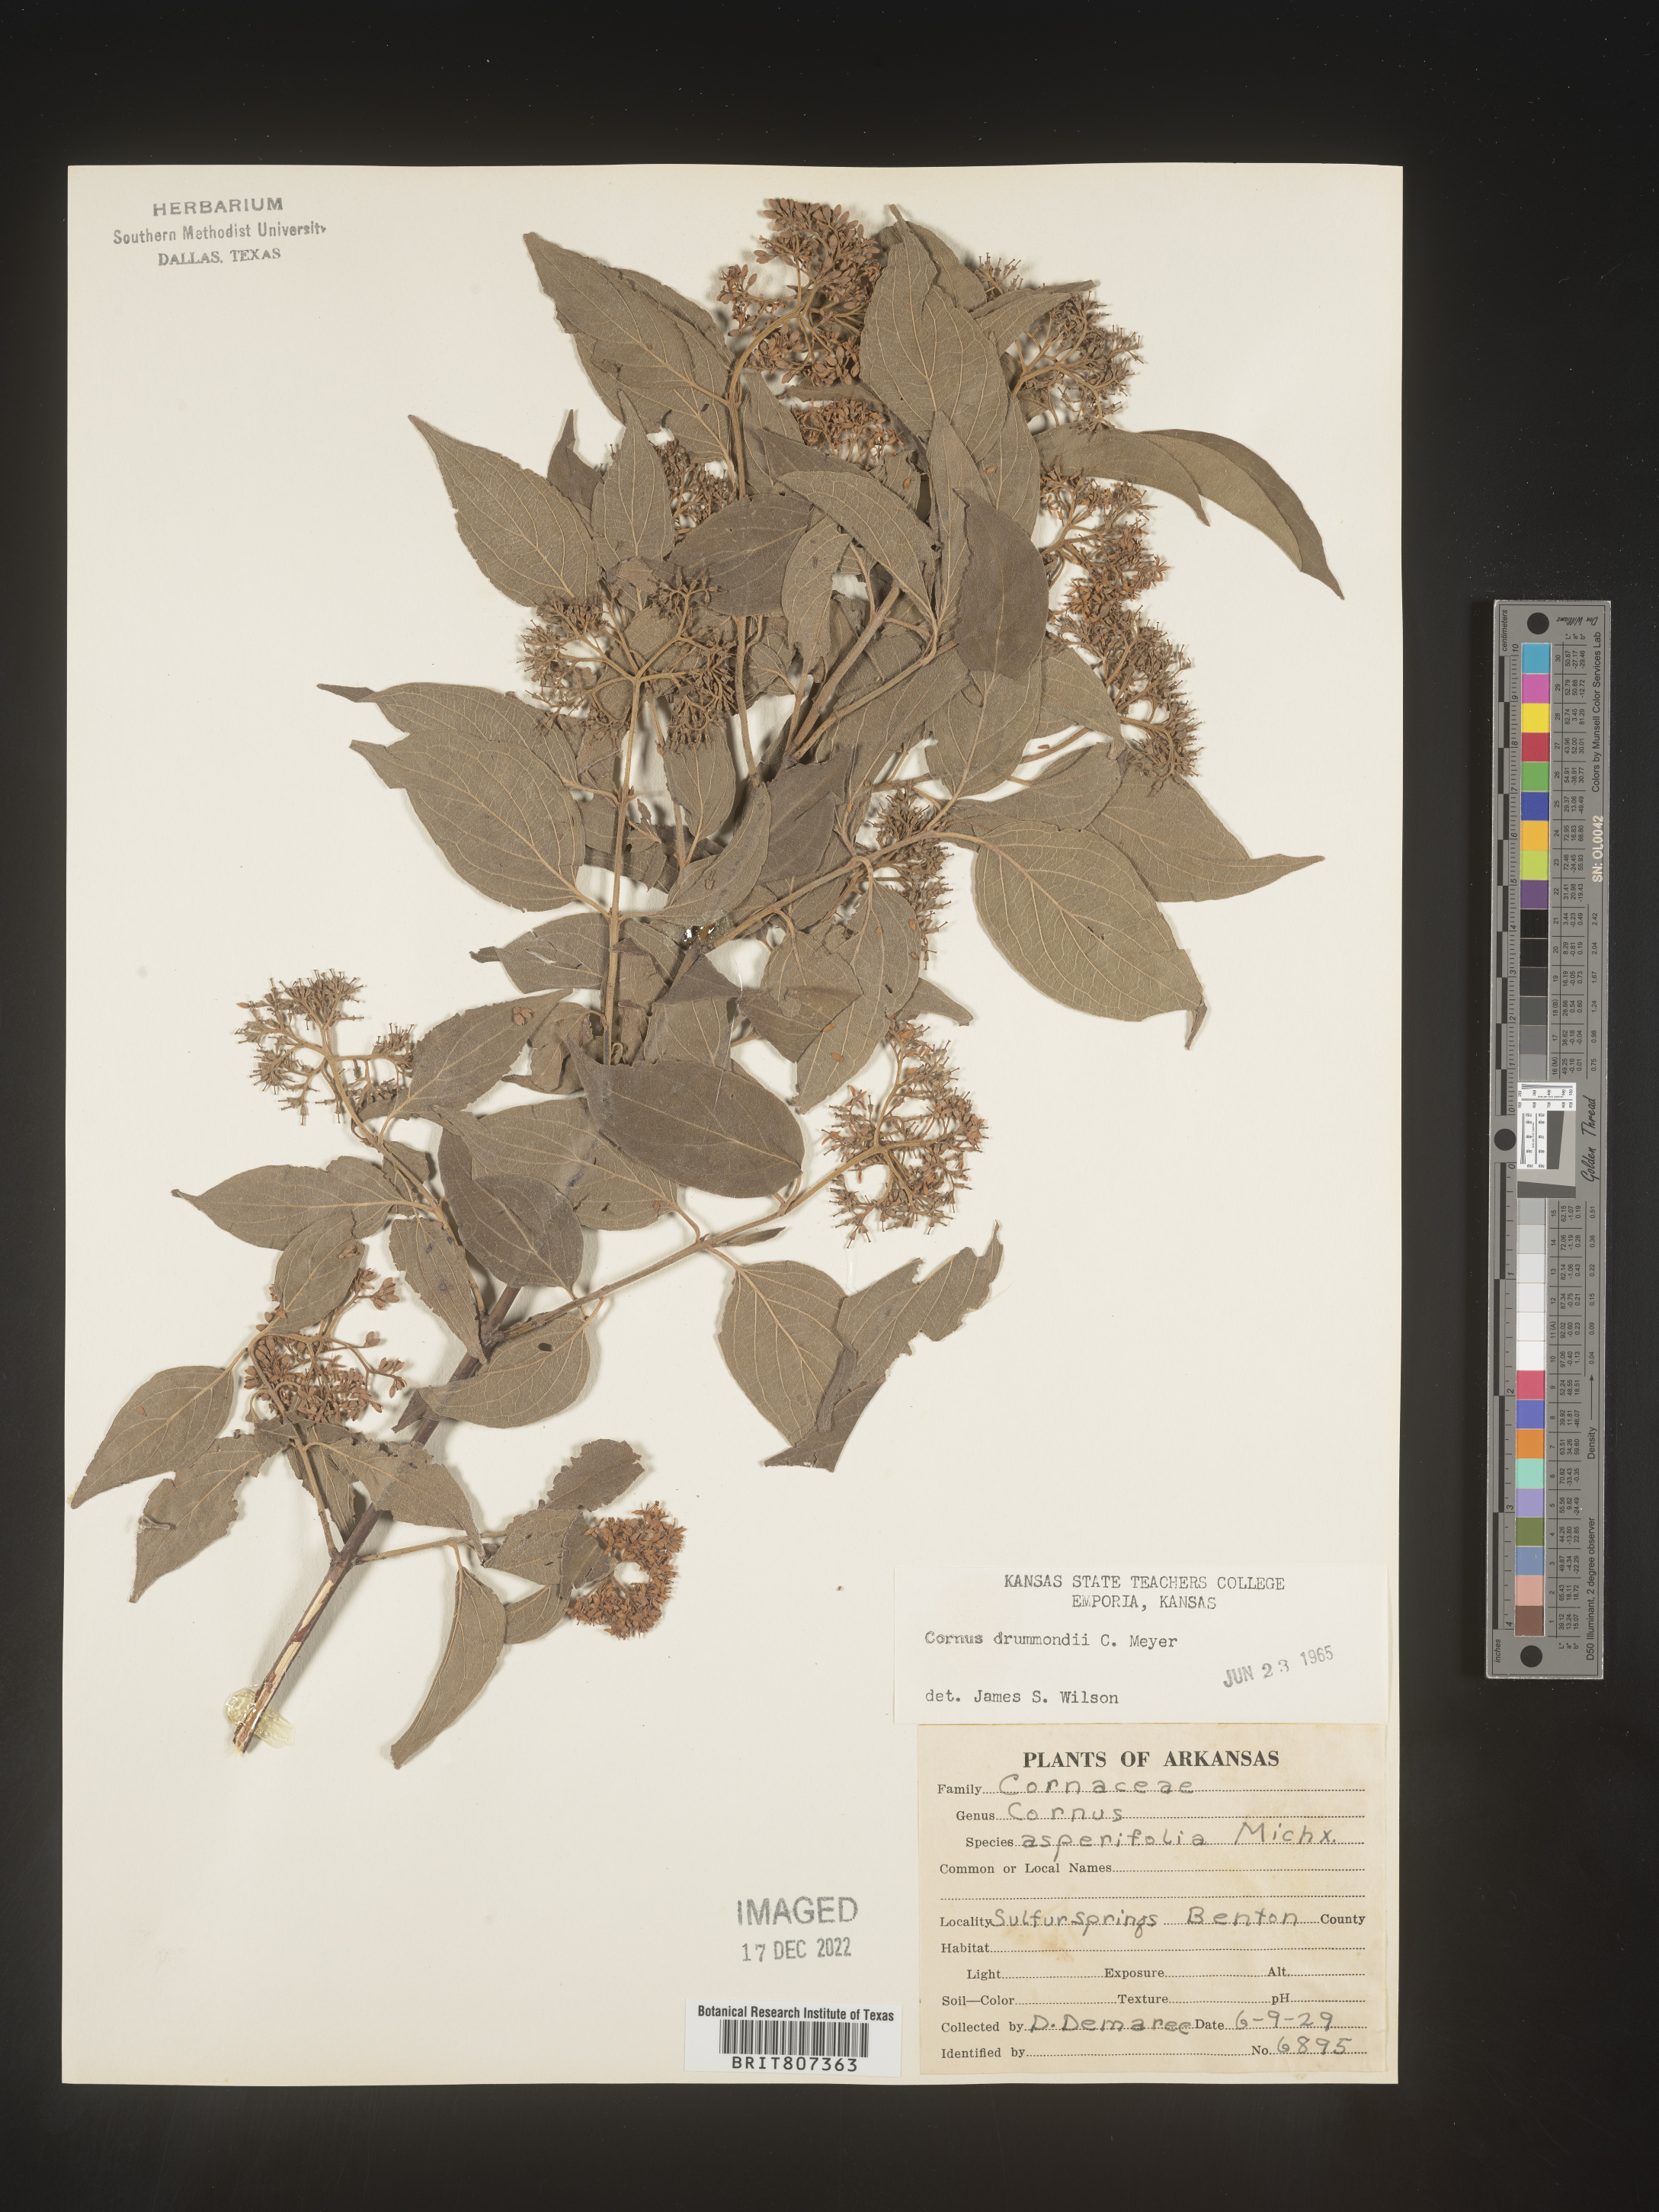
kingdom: Plantae
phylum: Tracheophyta
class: Magnoliopsida
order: Cornales
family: Cornaceae
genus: Cornus
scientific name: Cornus drummondii
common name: Rough-leaf dogwood
